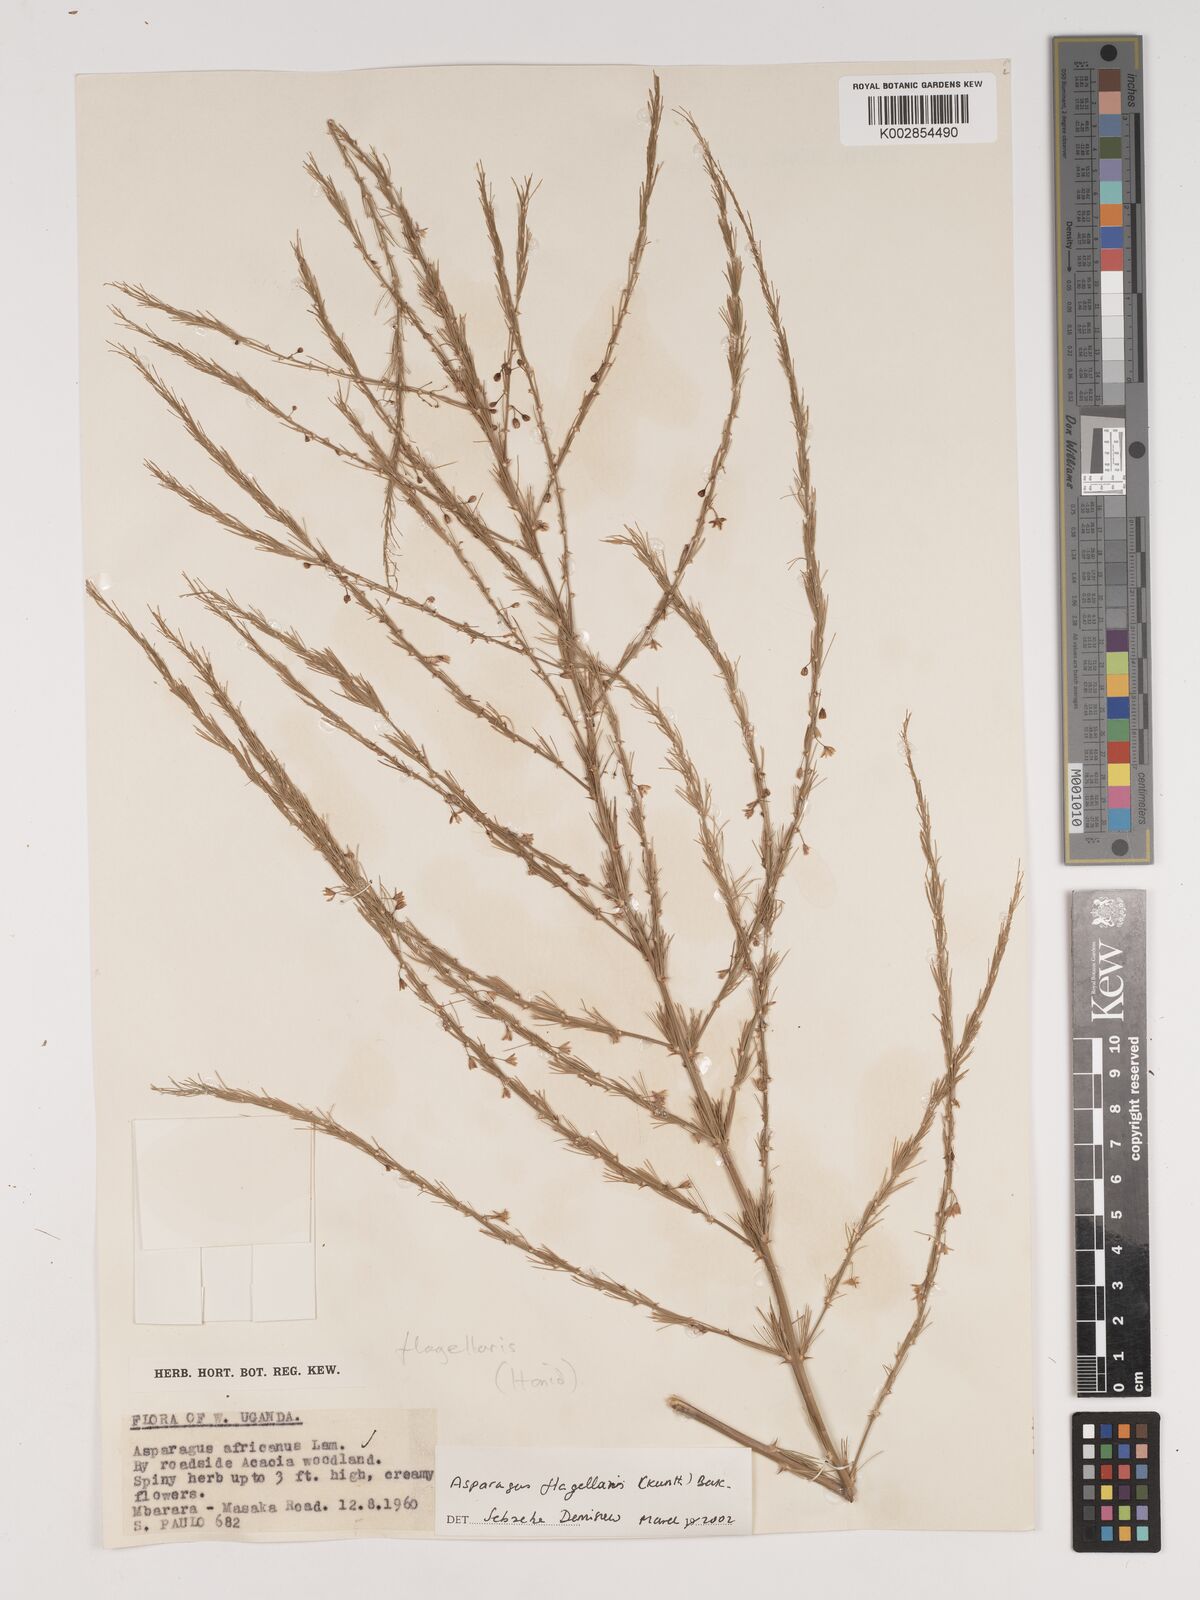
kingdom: Plantae
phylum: Tracheophyta
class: Liliopsida
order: Asparagales
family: Asparagaceae
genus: Asparagus
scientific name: Asparagus flagellaris
